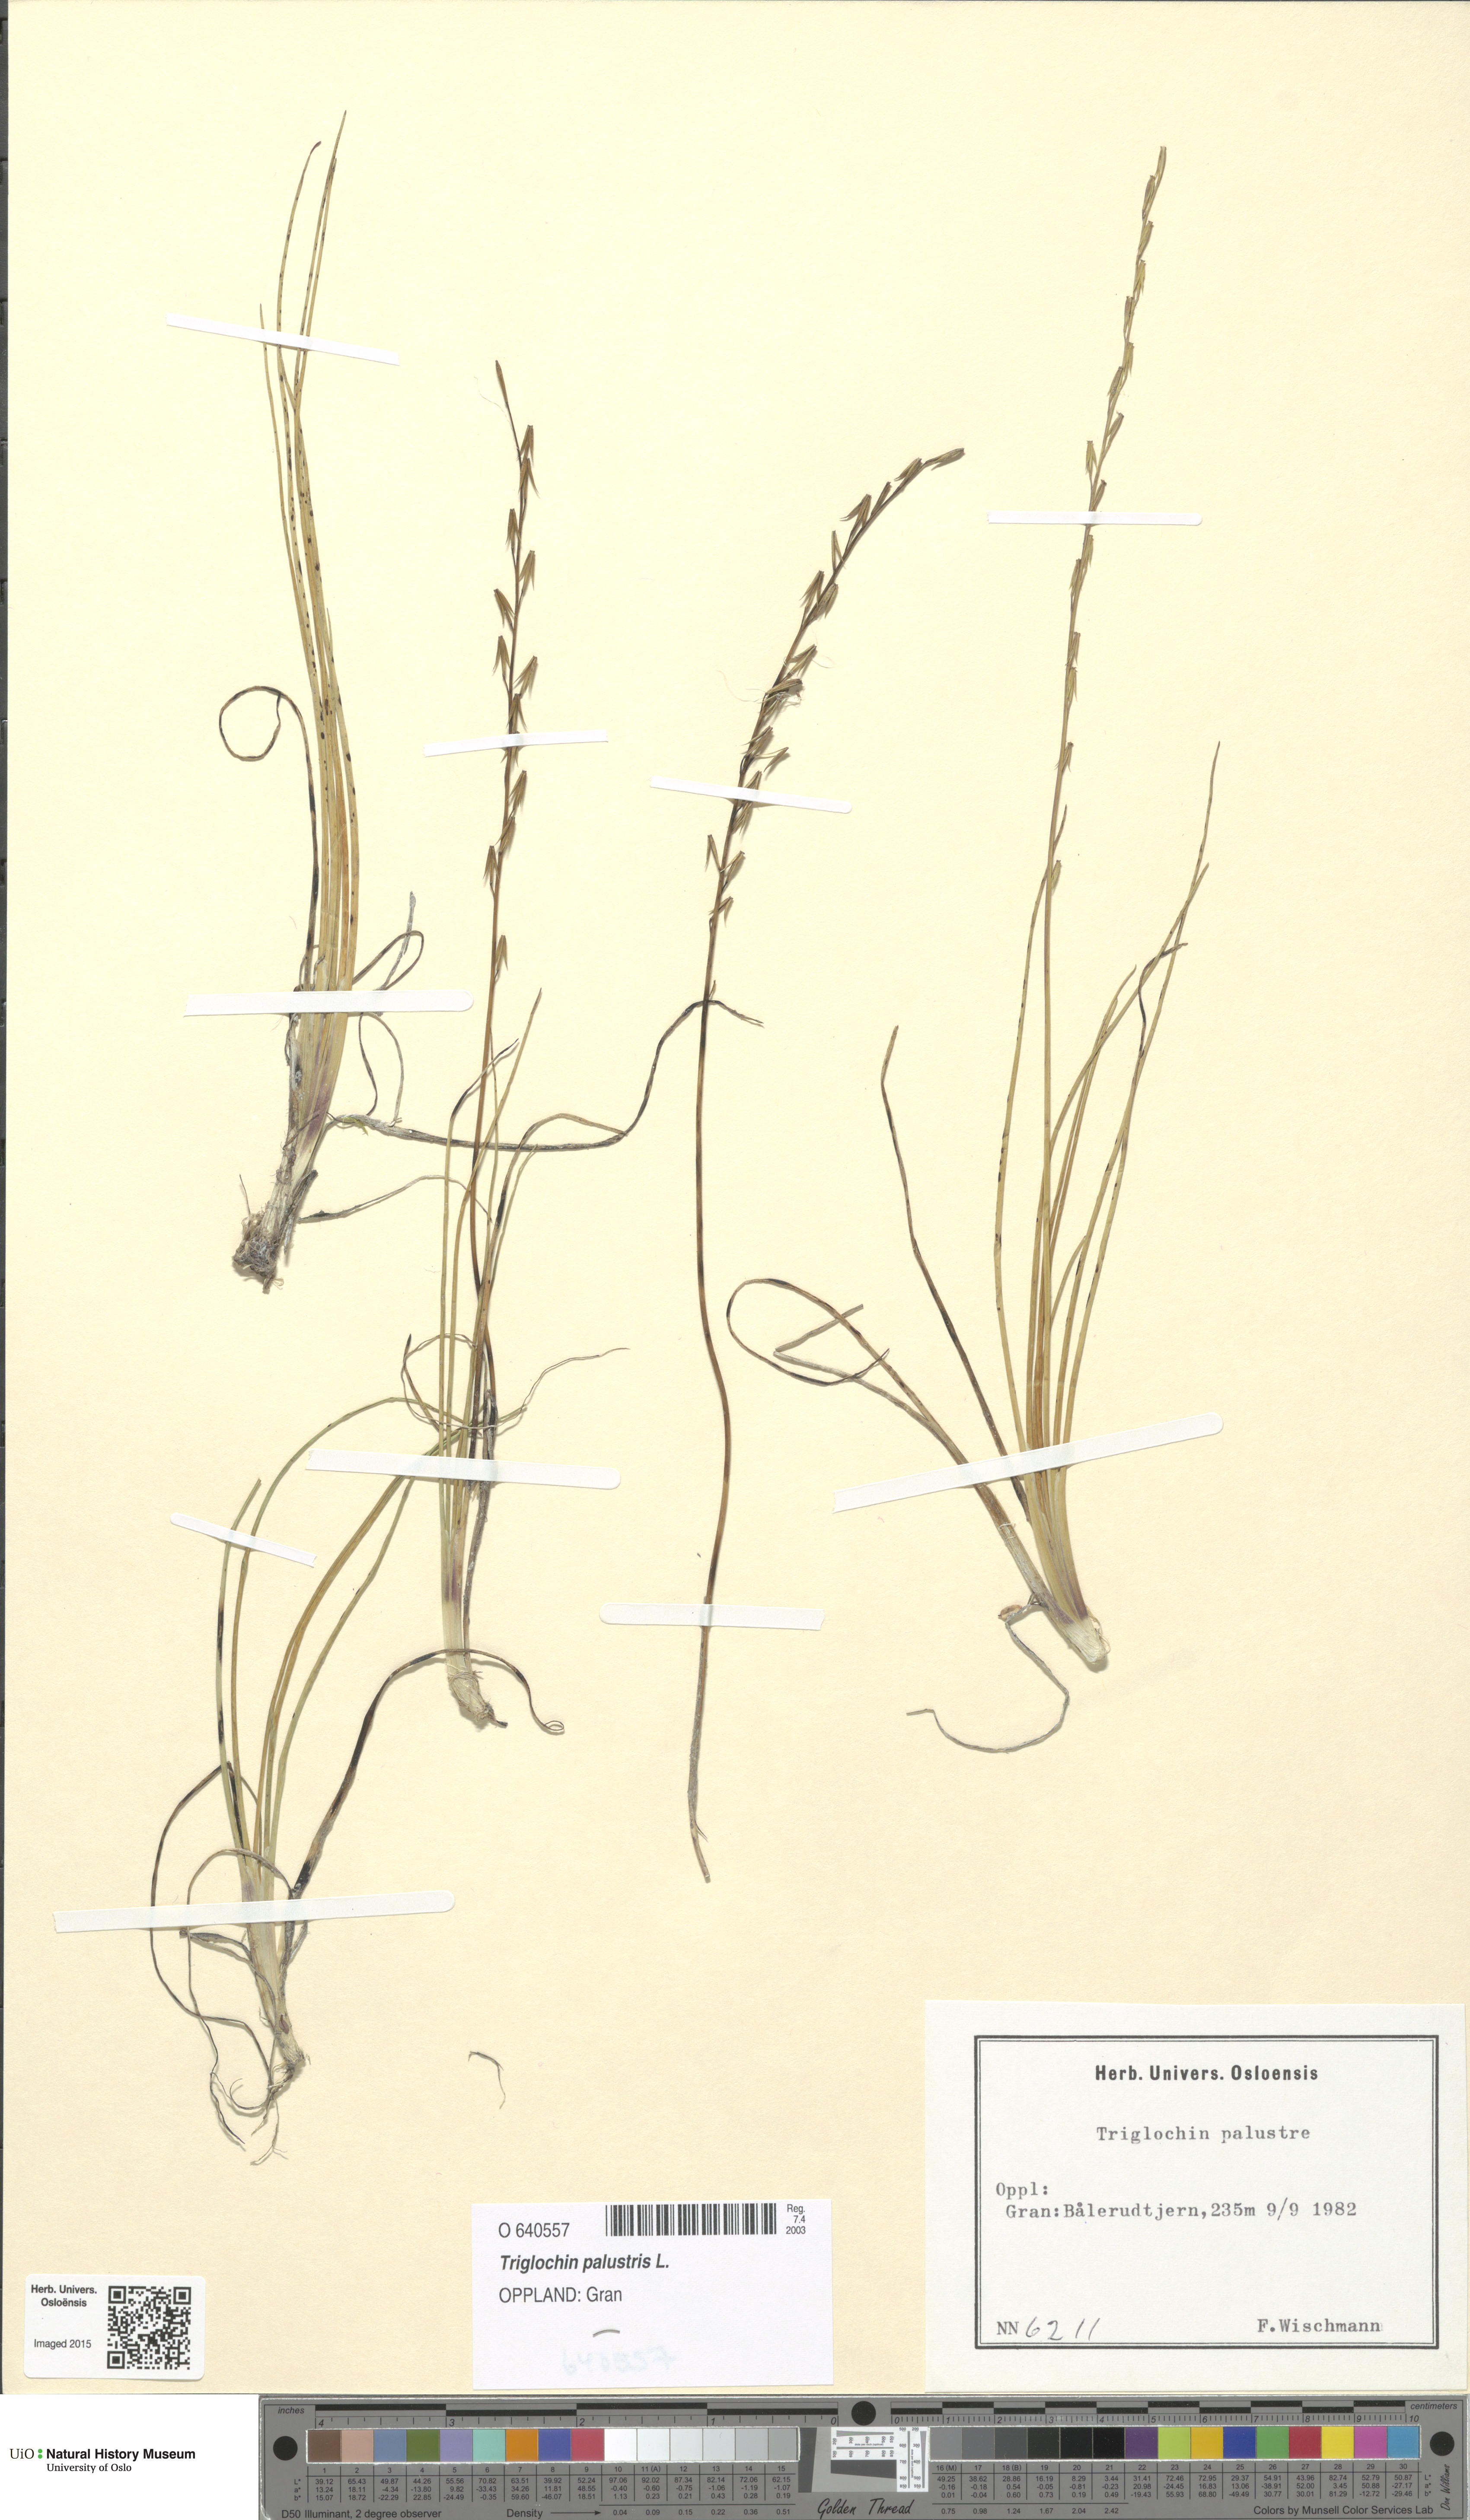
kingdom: Plantae
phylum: Tracheophyta
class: Liliopsida
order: Alismatales
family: Juncaginaceae
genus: Triglochin
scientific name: Triglochin palustris
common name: Marsh arrowgrass
